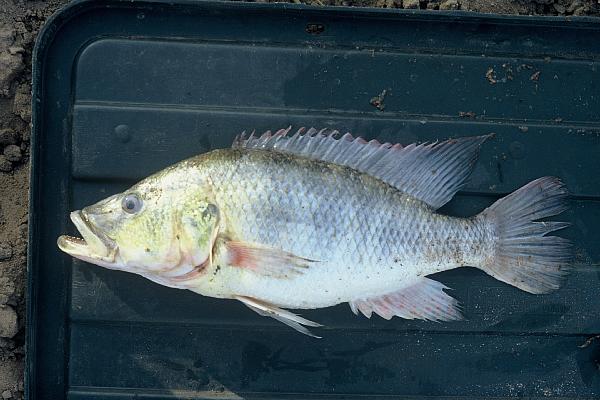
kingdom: Animalia
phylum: Chordata
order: Perciformes
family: Cichlidae
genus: Serranochromis
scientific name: Serranochromis macrocephalus
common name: Purpleface largemouth
